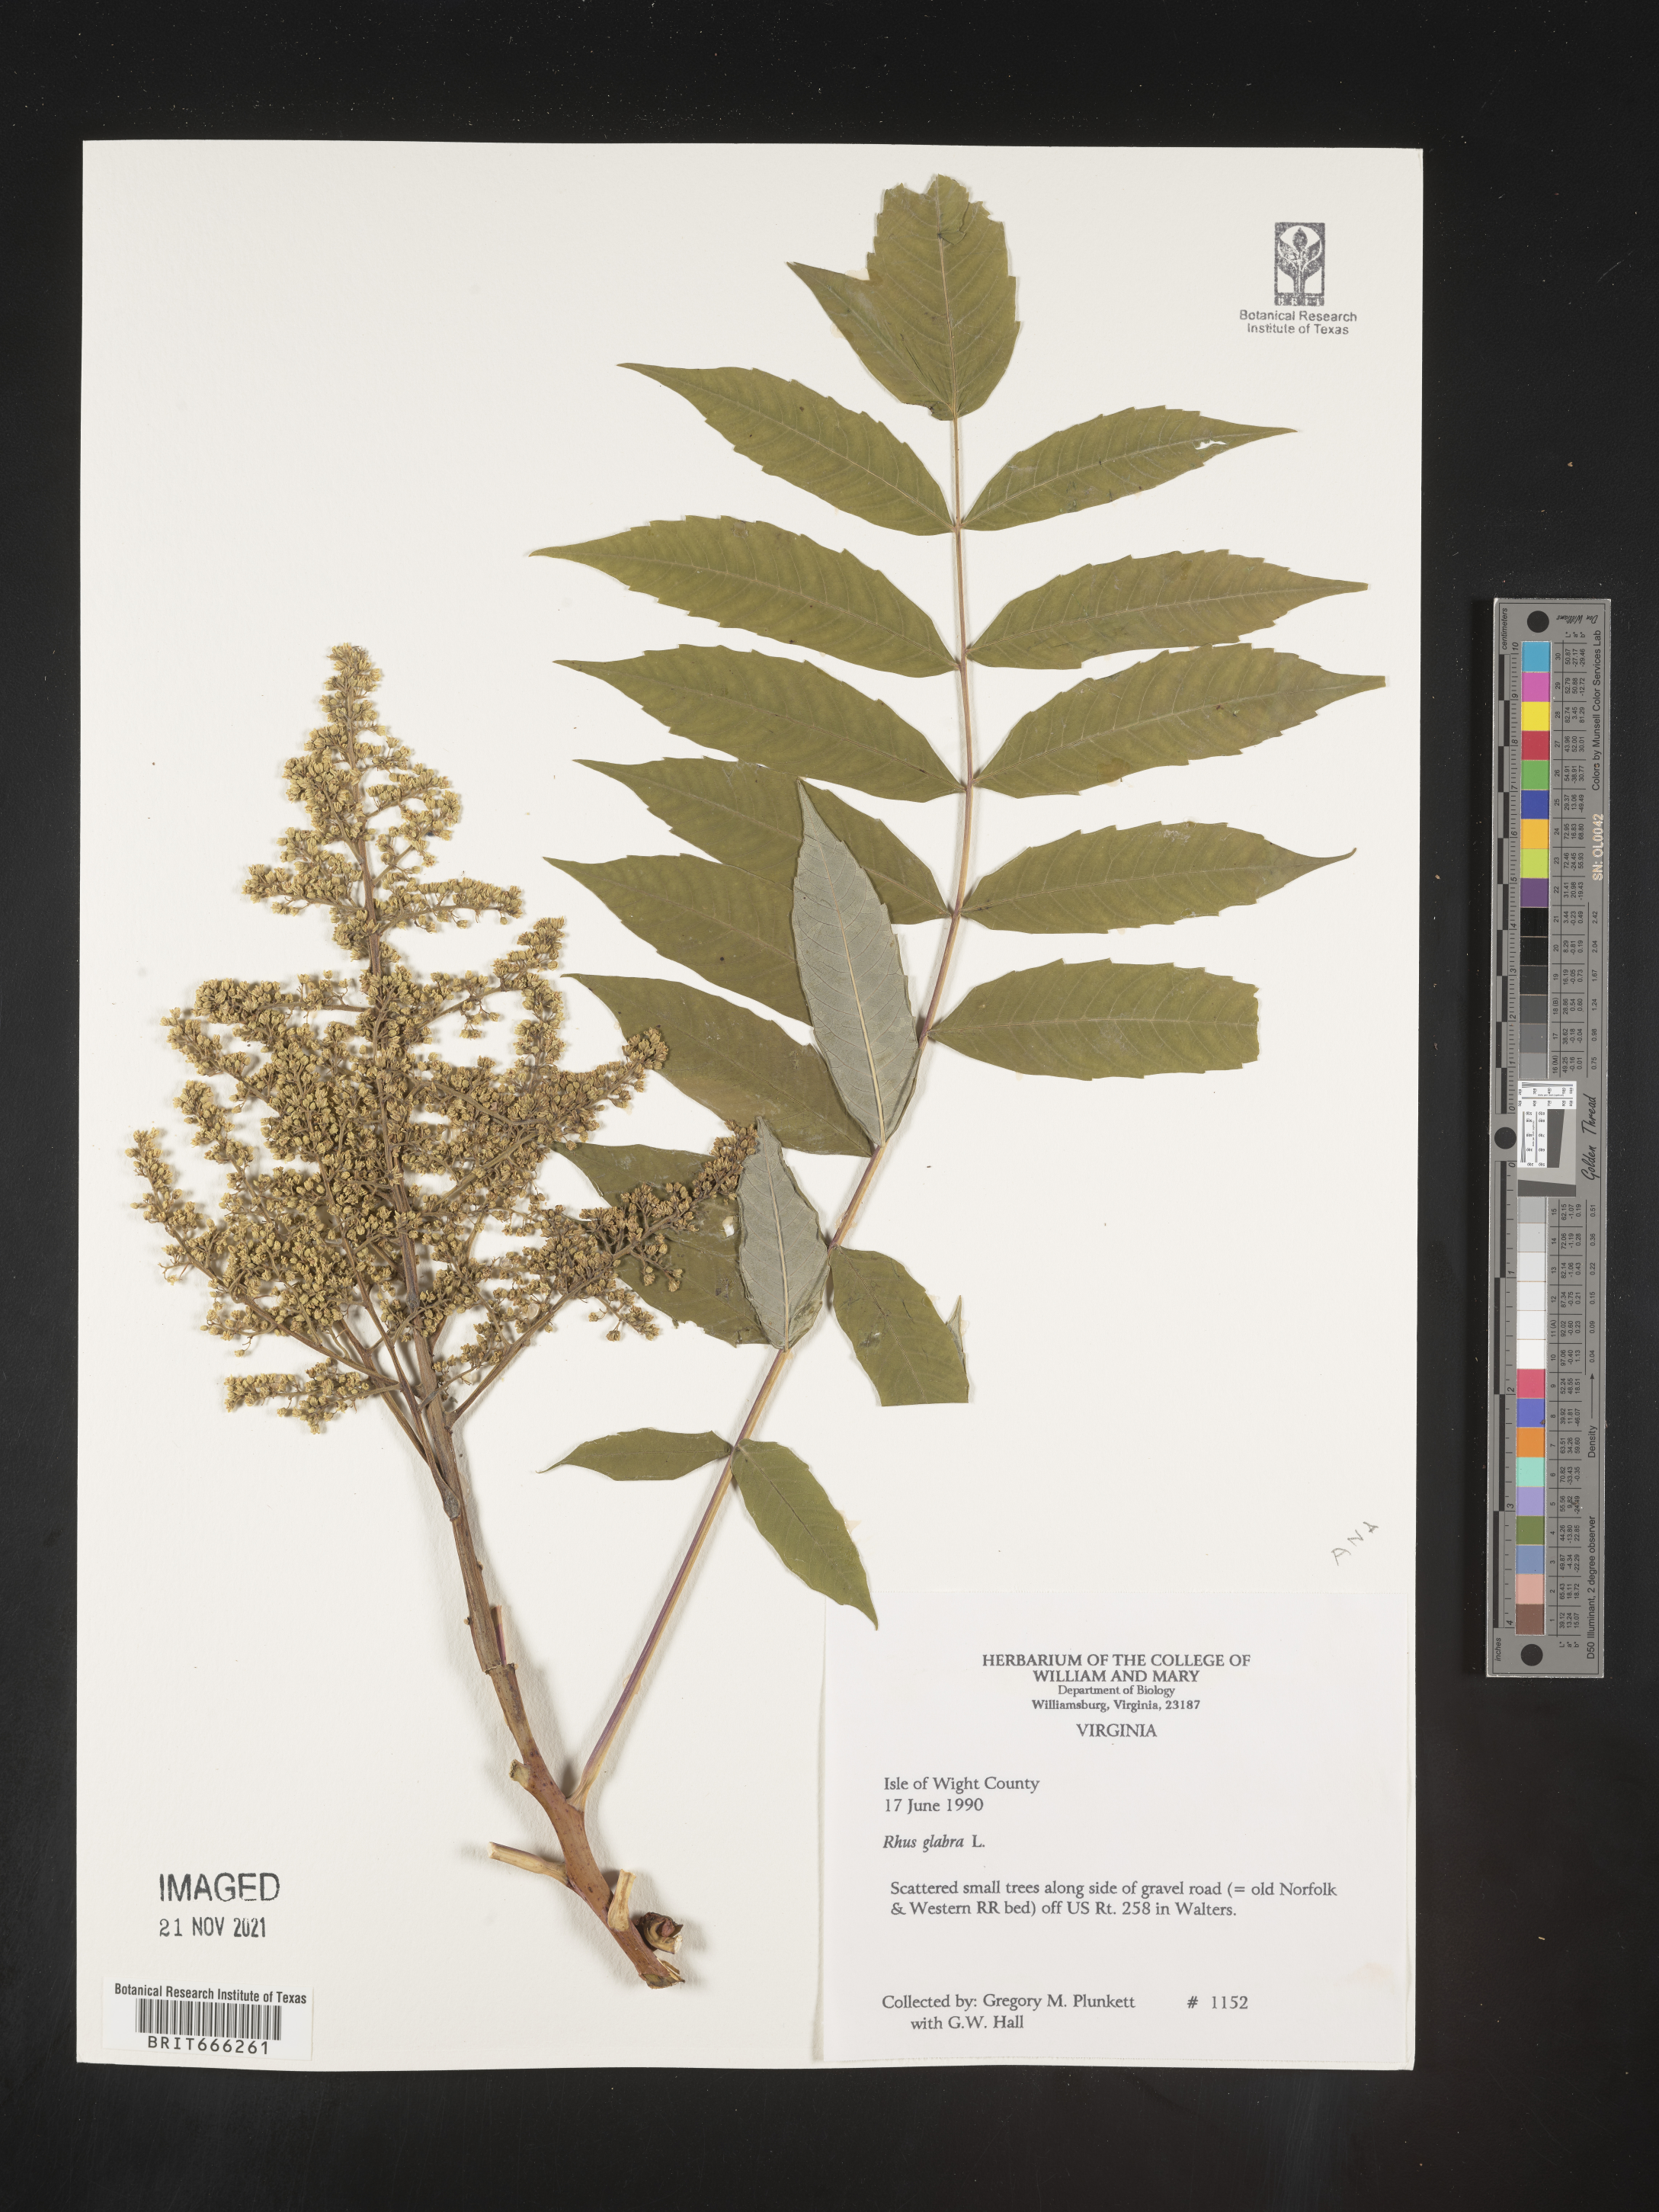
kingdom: Plantae
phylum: Tracheophyta
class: Magnoliopsida
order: Sapindales
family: Anacardiaceae
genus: Rhus
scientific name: Rhus glabra
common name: Scarlet sumac
